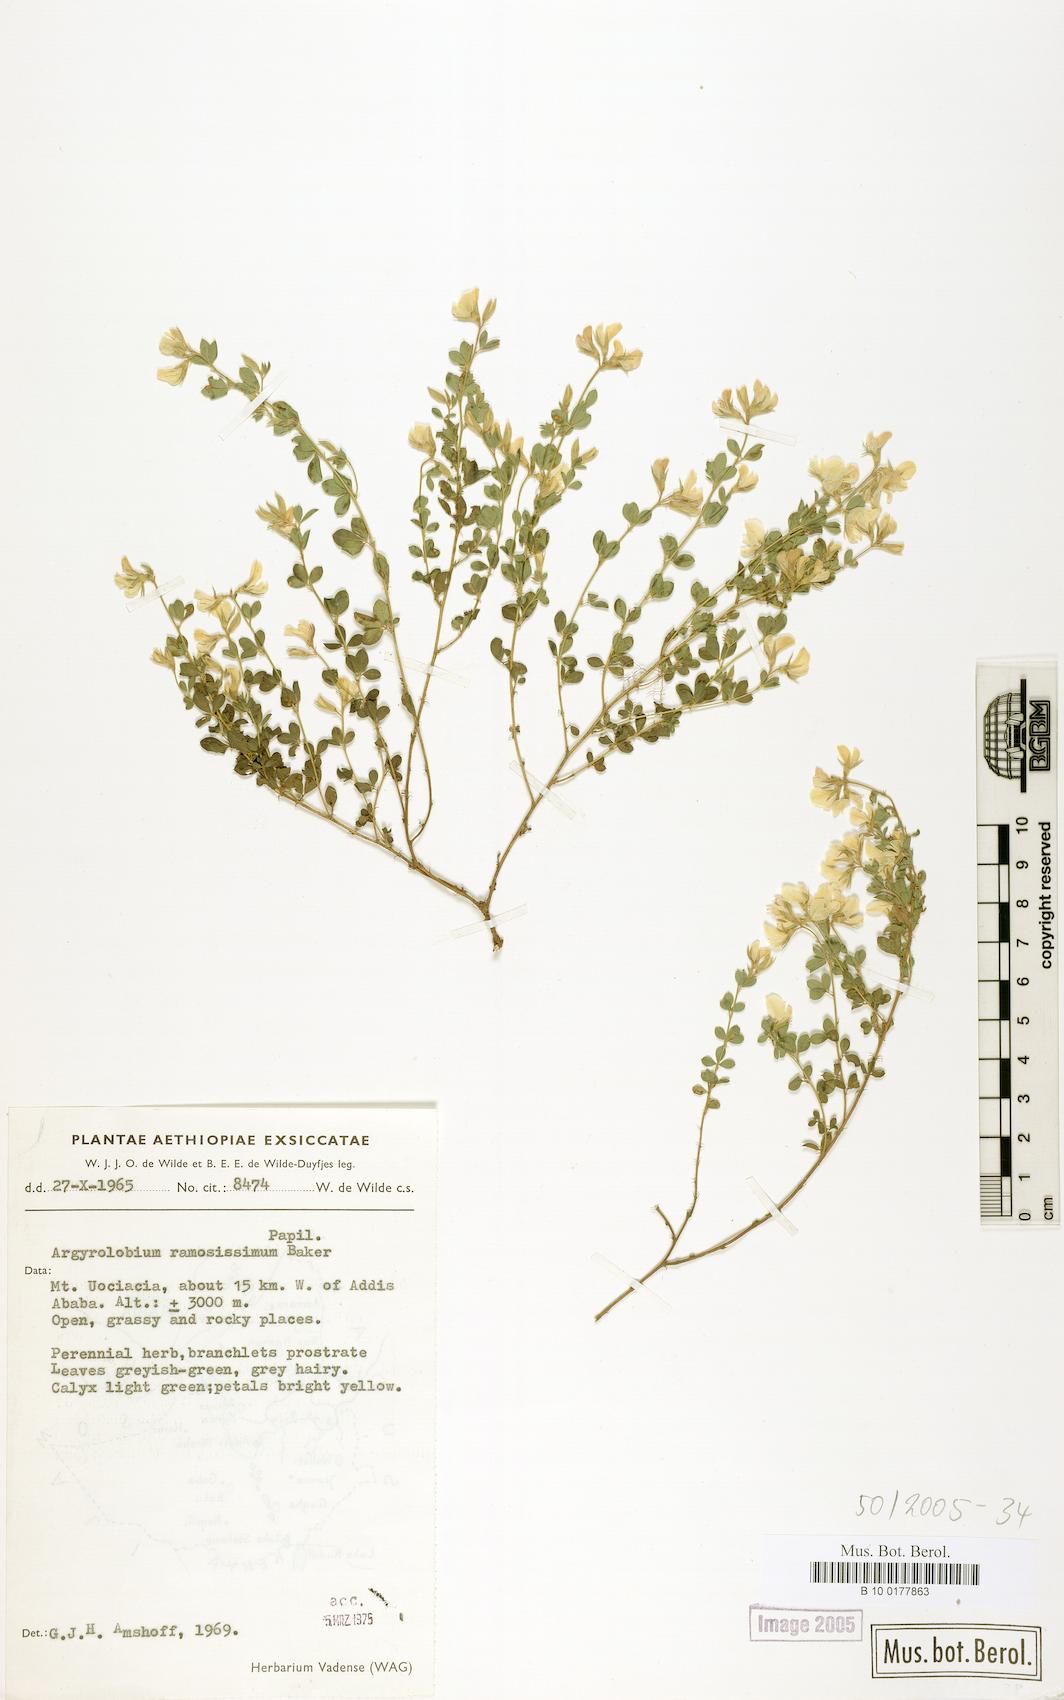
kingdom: Plantae
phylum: Tracheophyta
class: Magnoliopsida
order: Fabales
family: Fabaceae
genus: Argyrolobium
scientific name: Argyrolobium ramosissimum
